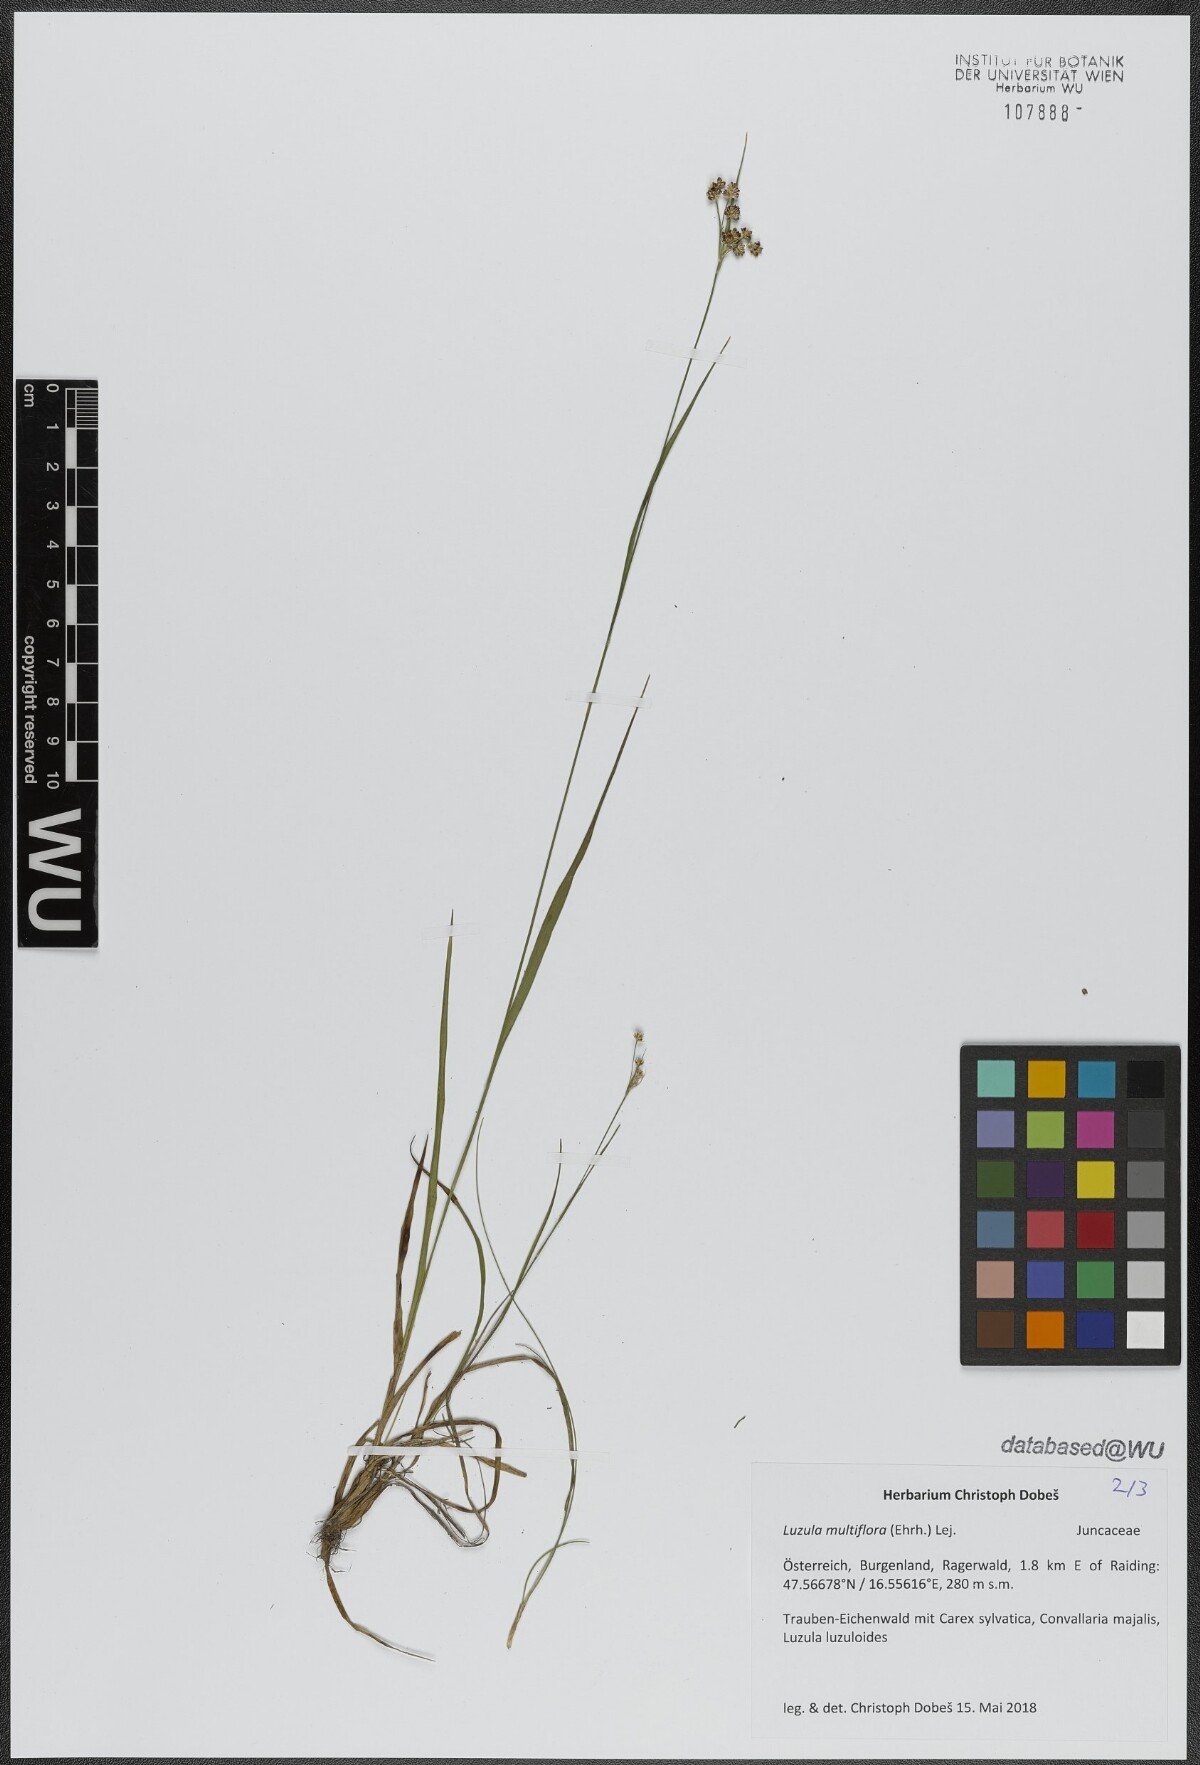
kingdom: Plantae
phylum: Tracheophyta
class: Liliopsida
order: Poales
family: Juncaceae
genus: Luzula
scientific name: Luzula multiflora
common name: Heath wood-rush
